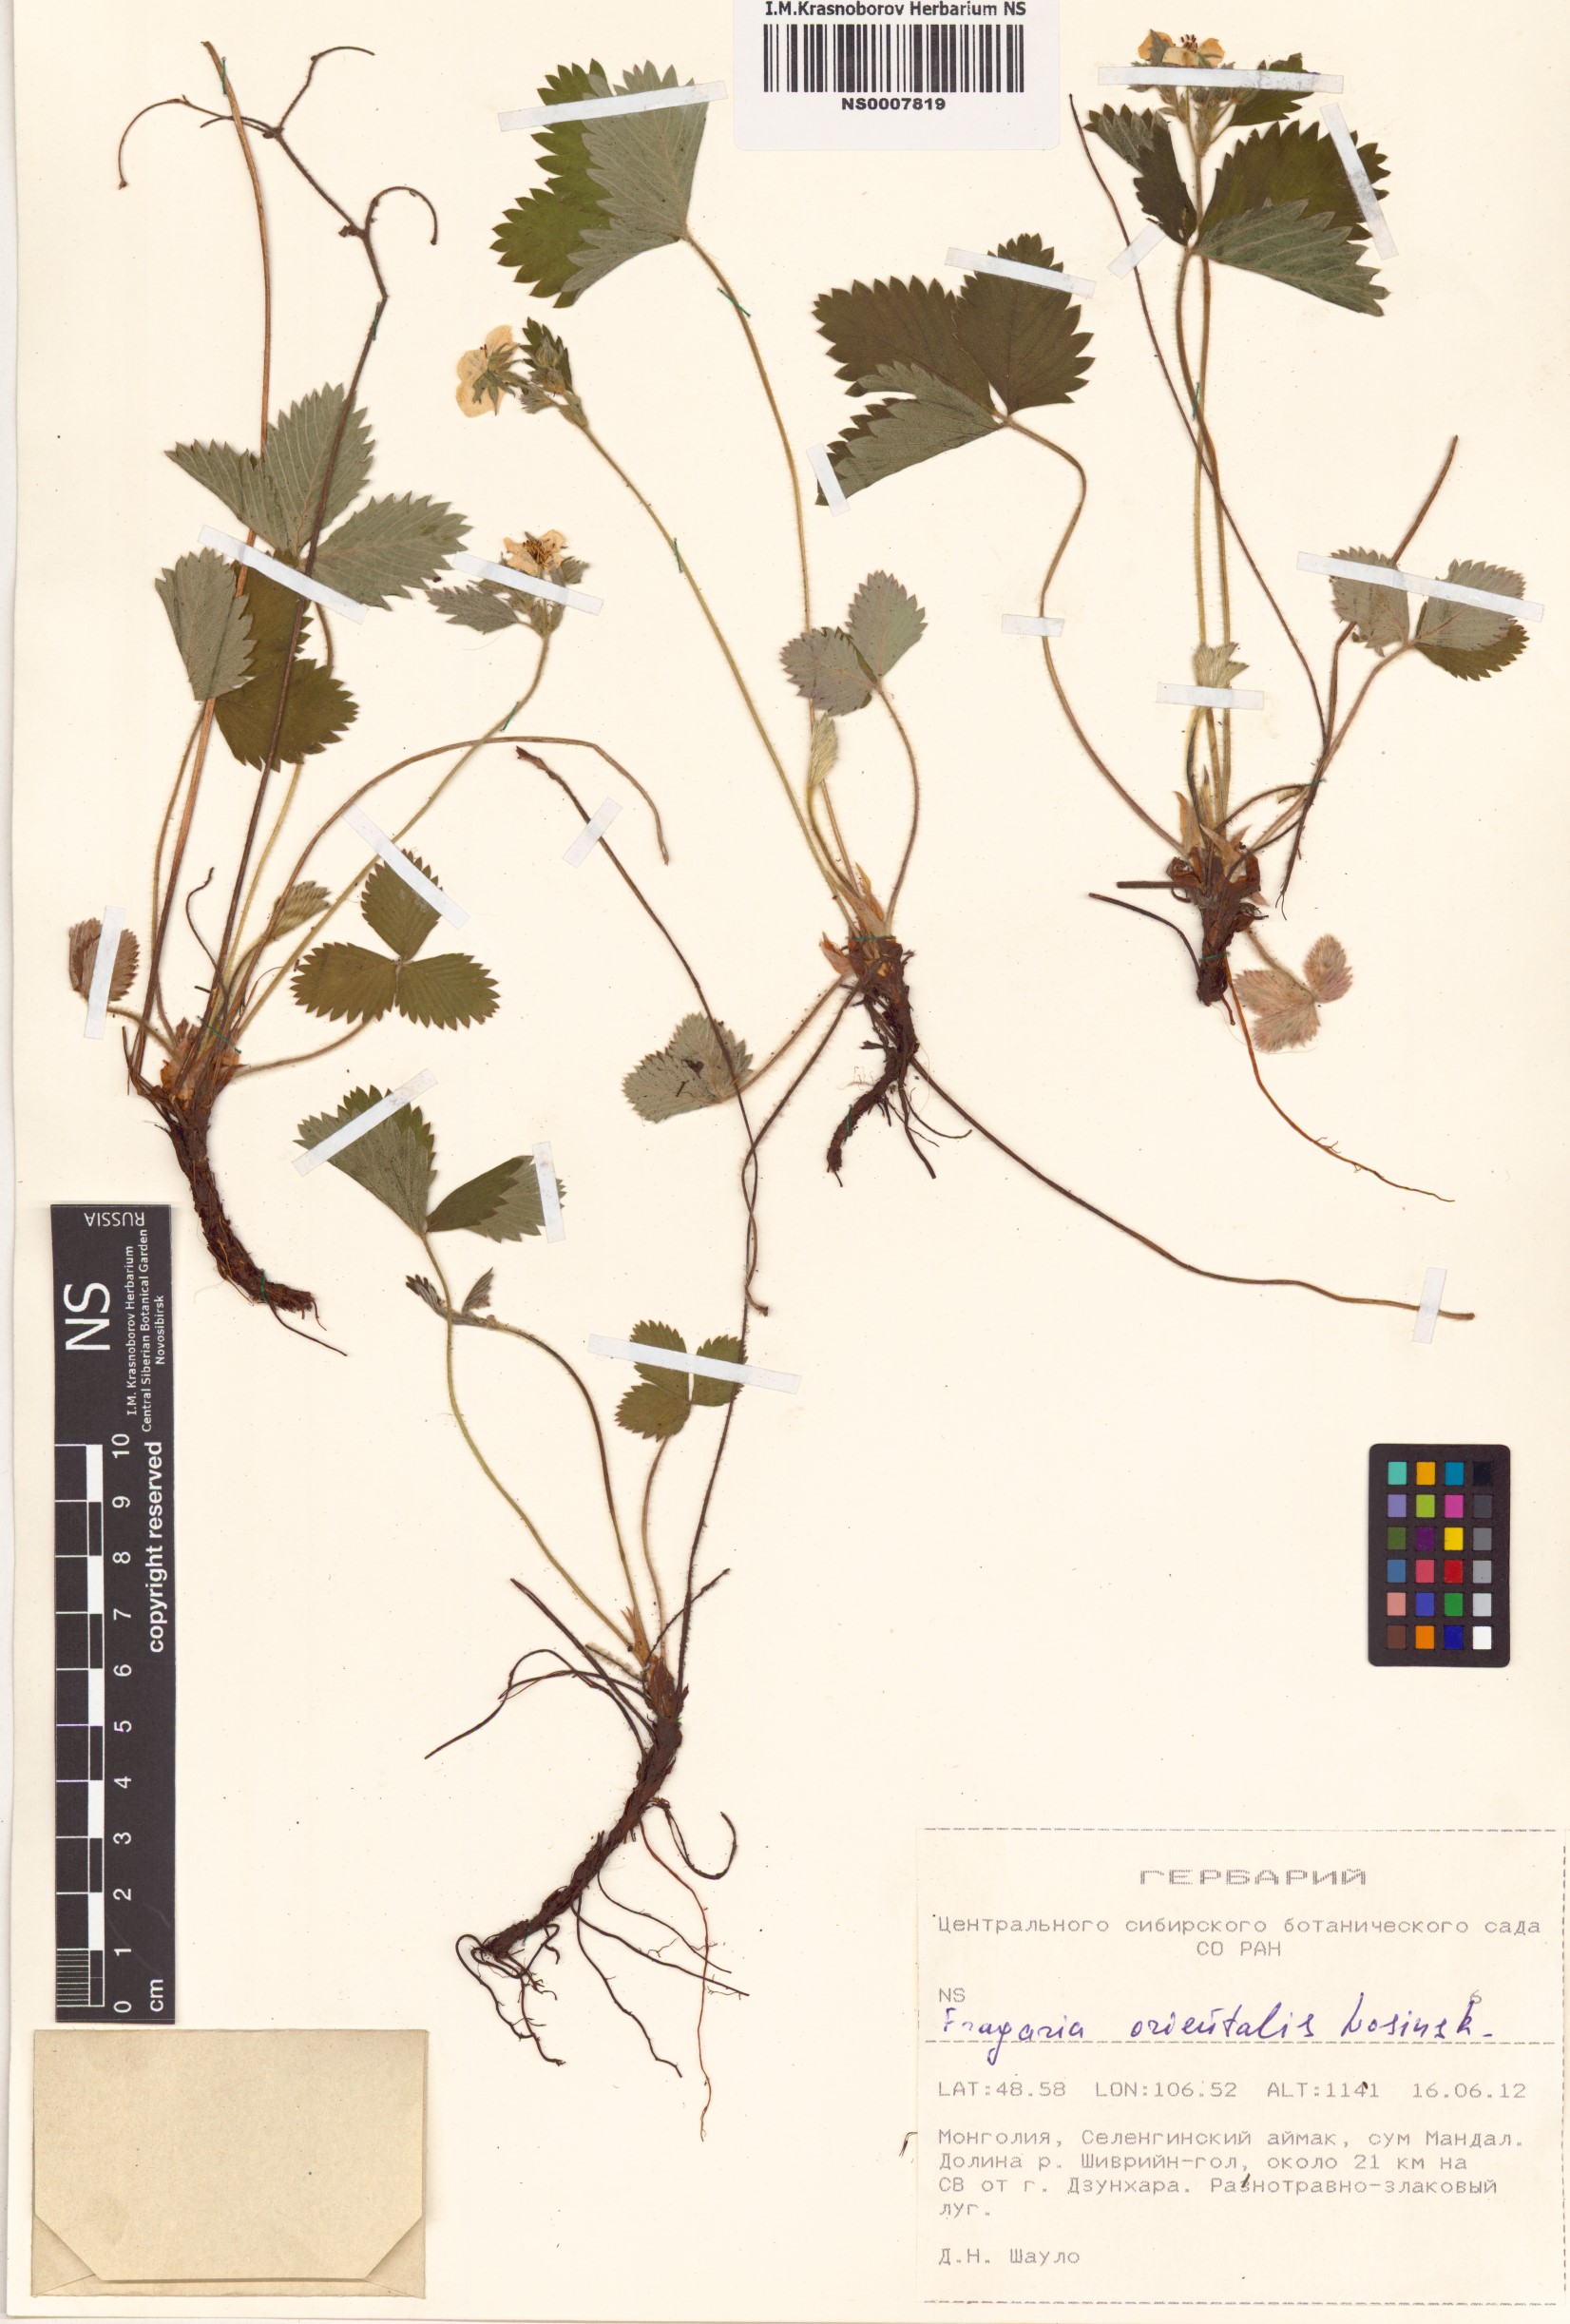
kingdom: Plantae
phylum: Tracheophyta
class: Magnoliopsida
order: Rosales
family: Rosaceae
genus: Fragaria
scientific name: Fragaria orientalis
